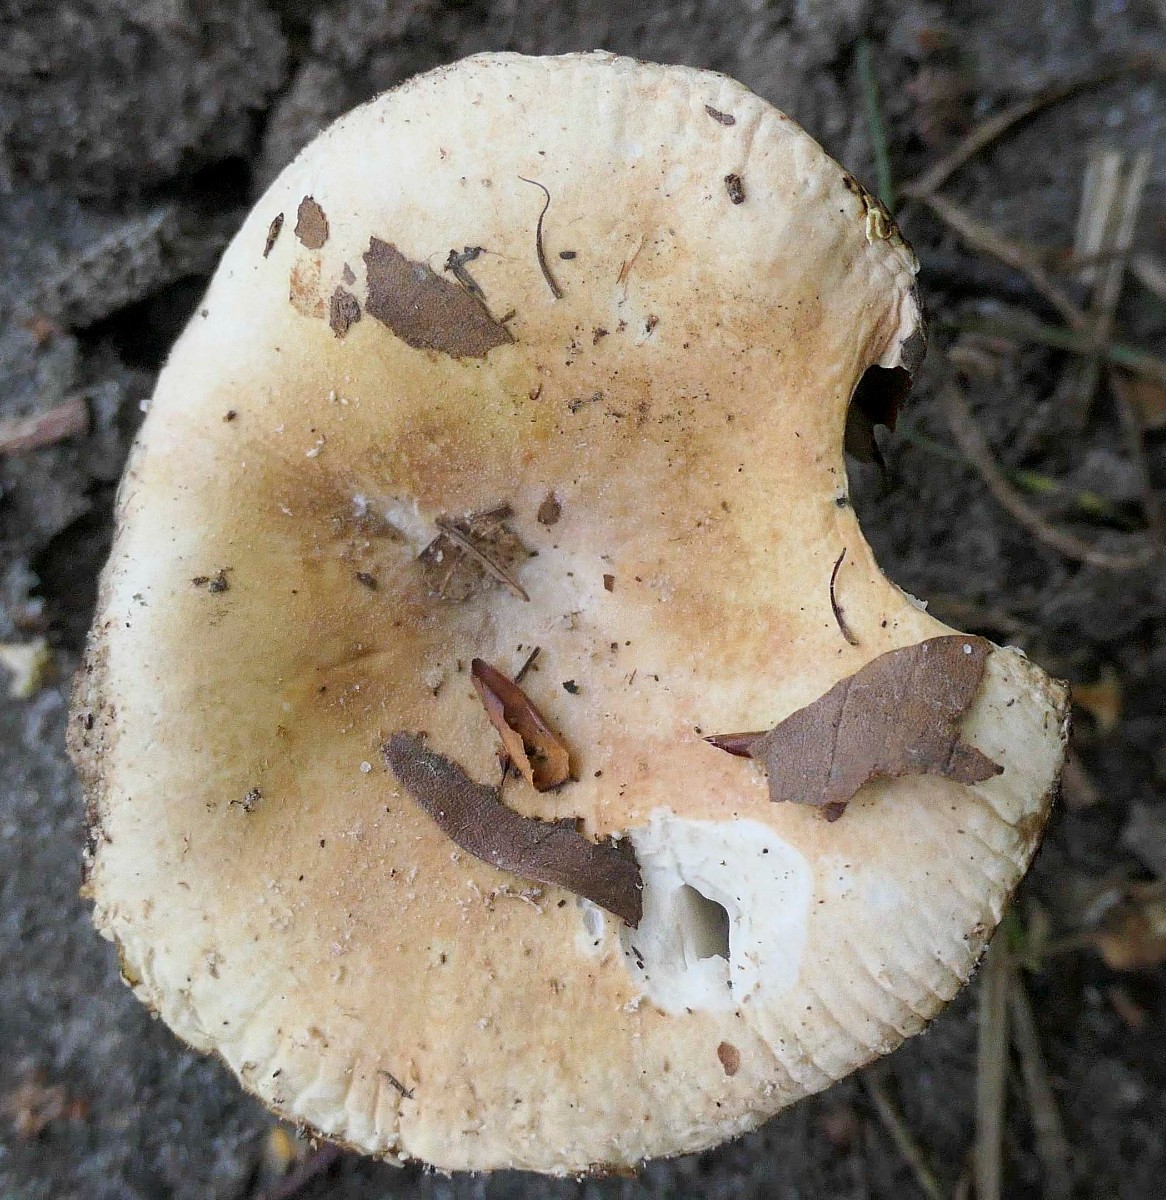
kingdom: Fungi
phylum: Basidiomycota
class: Agaricomycetes
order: Russulales
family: Russulaceae
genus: Russula
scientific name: Russula roseoaurantia
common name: kornet skørhat
